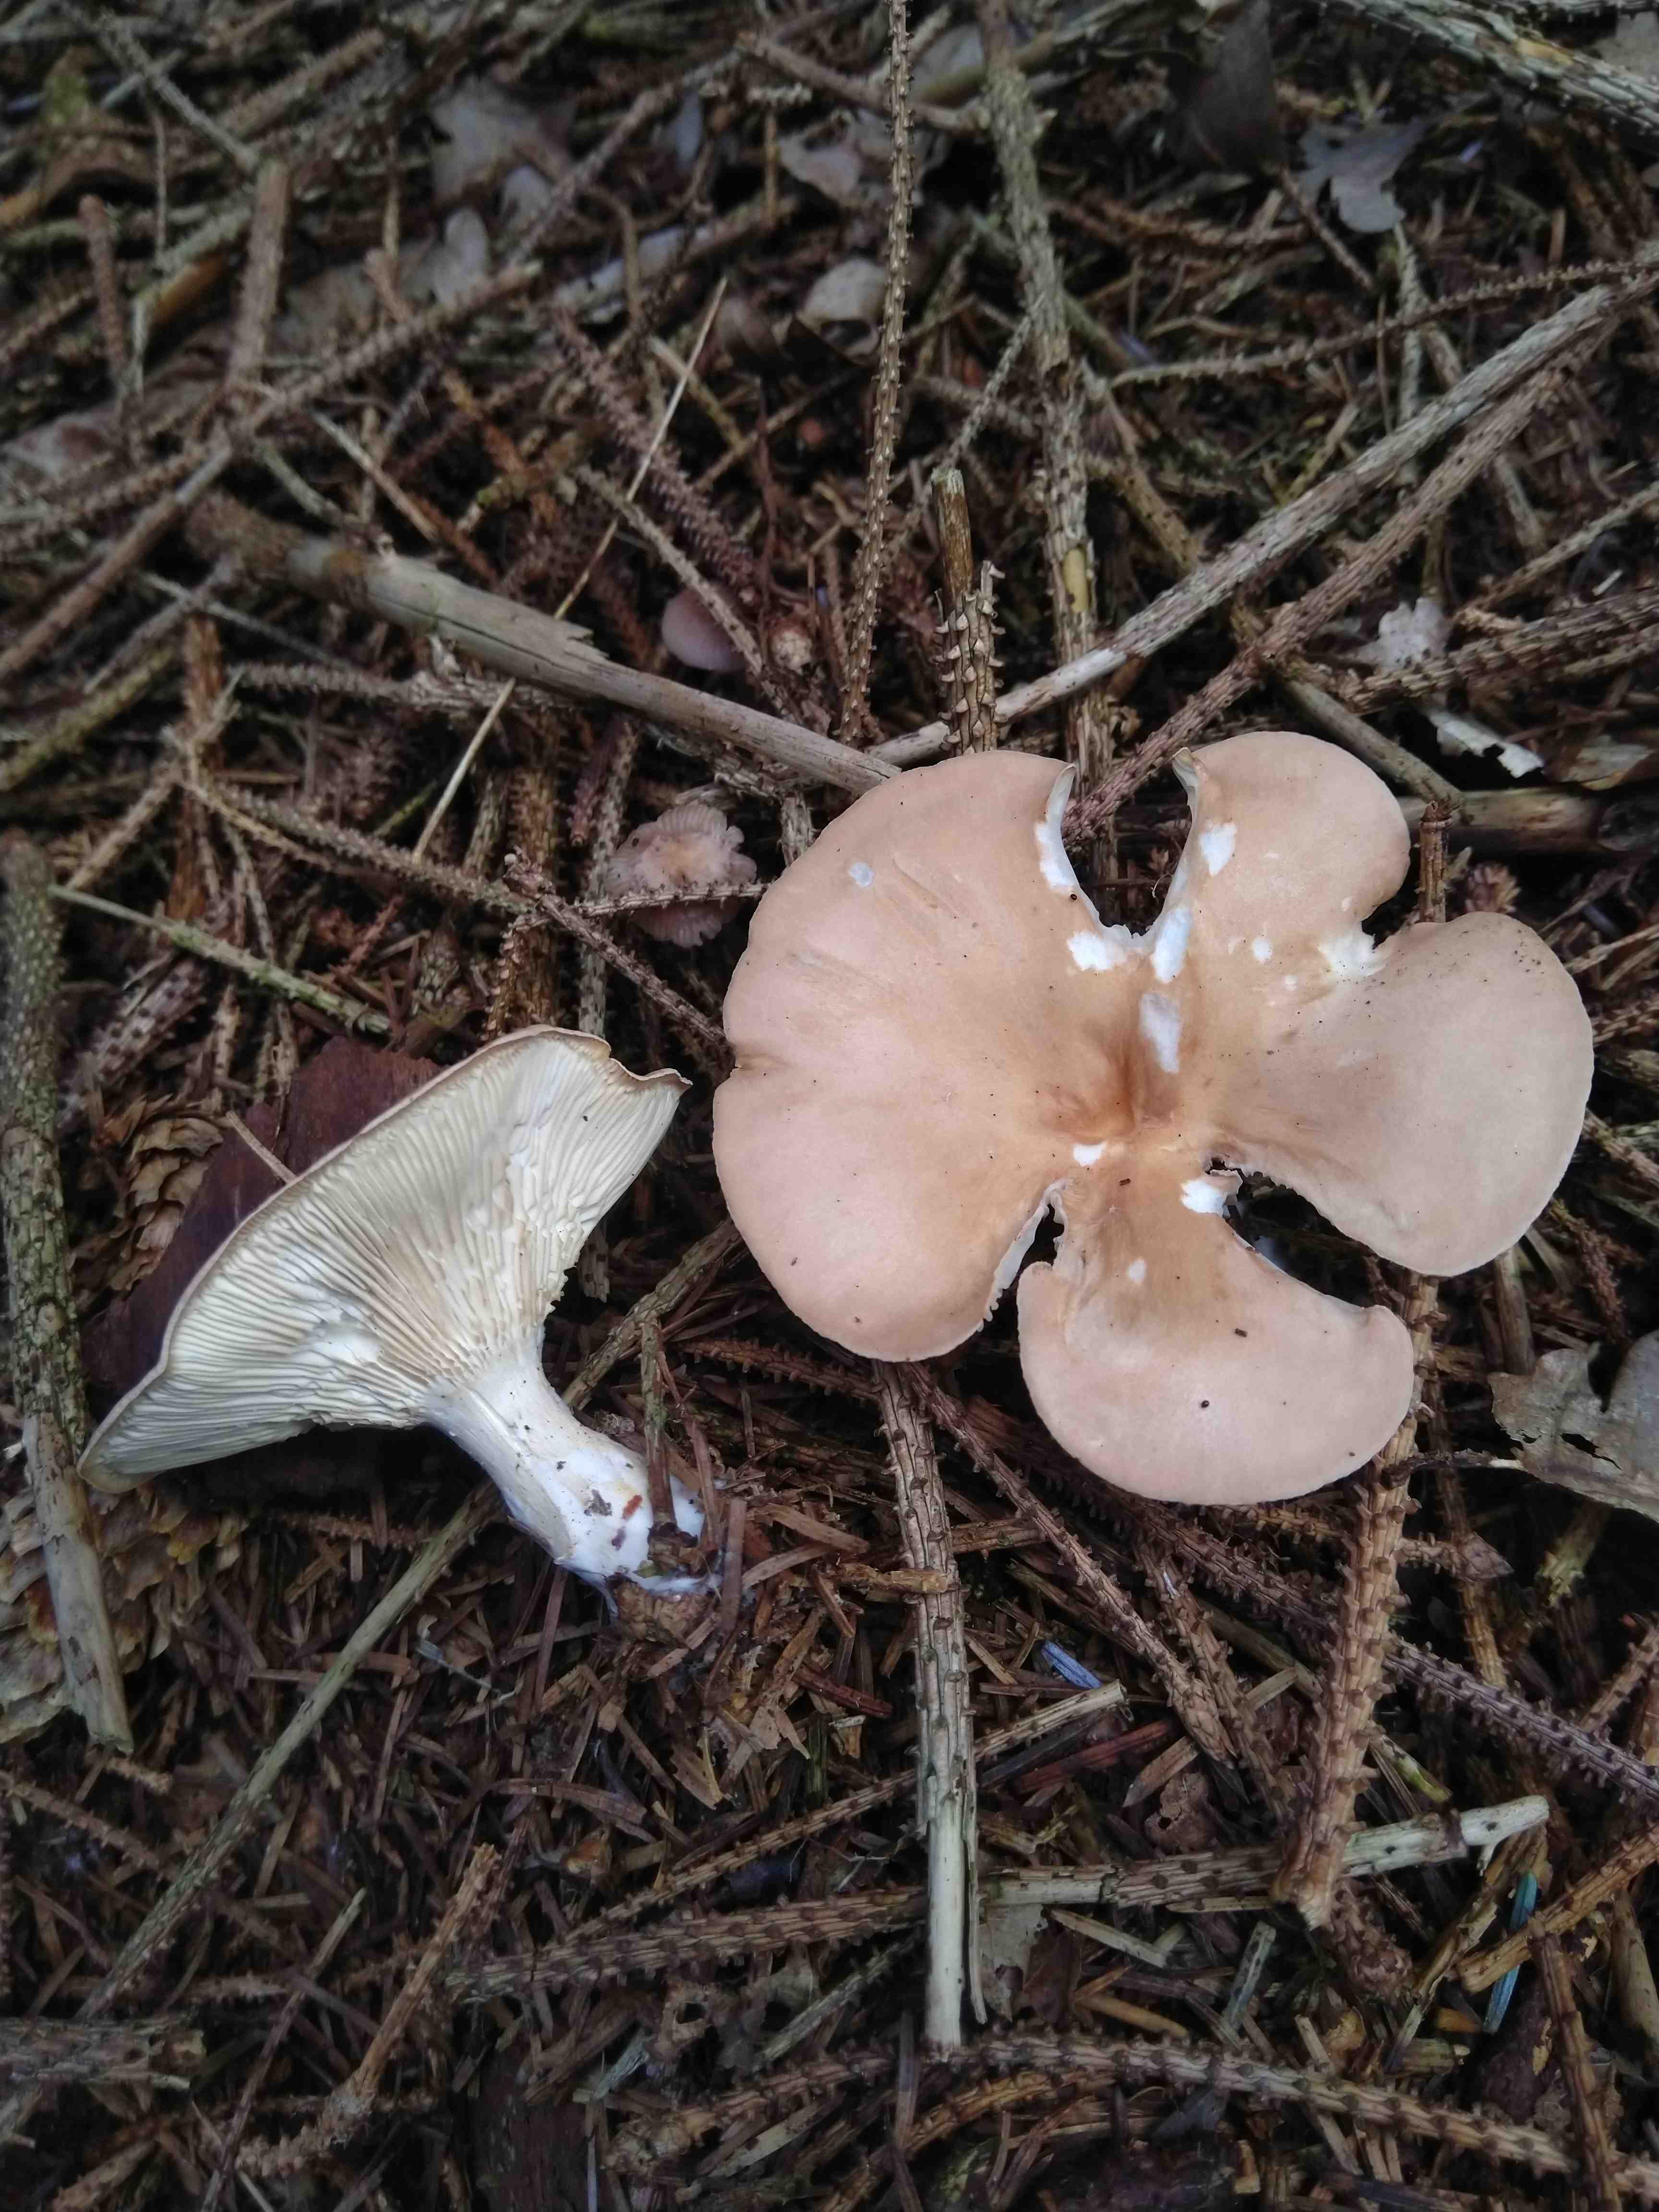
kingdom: Fungi
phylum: Basidiomycota
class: Agaricomycetes
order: Agaricales
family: Tricholomataceae
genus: Infundibulicybe
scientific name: Infundibulicybe gibba
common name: almindelig tragthat
